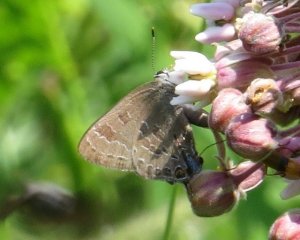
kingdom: Animalia
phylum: Arthropoda
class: Insecta
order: Lepidoptera
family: Lycaenidae
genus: Strymon
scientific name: Strymon caryaevorus
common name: Hickory Hairstreak
